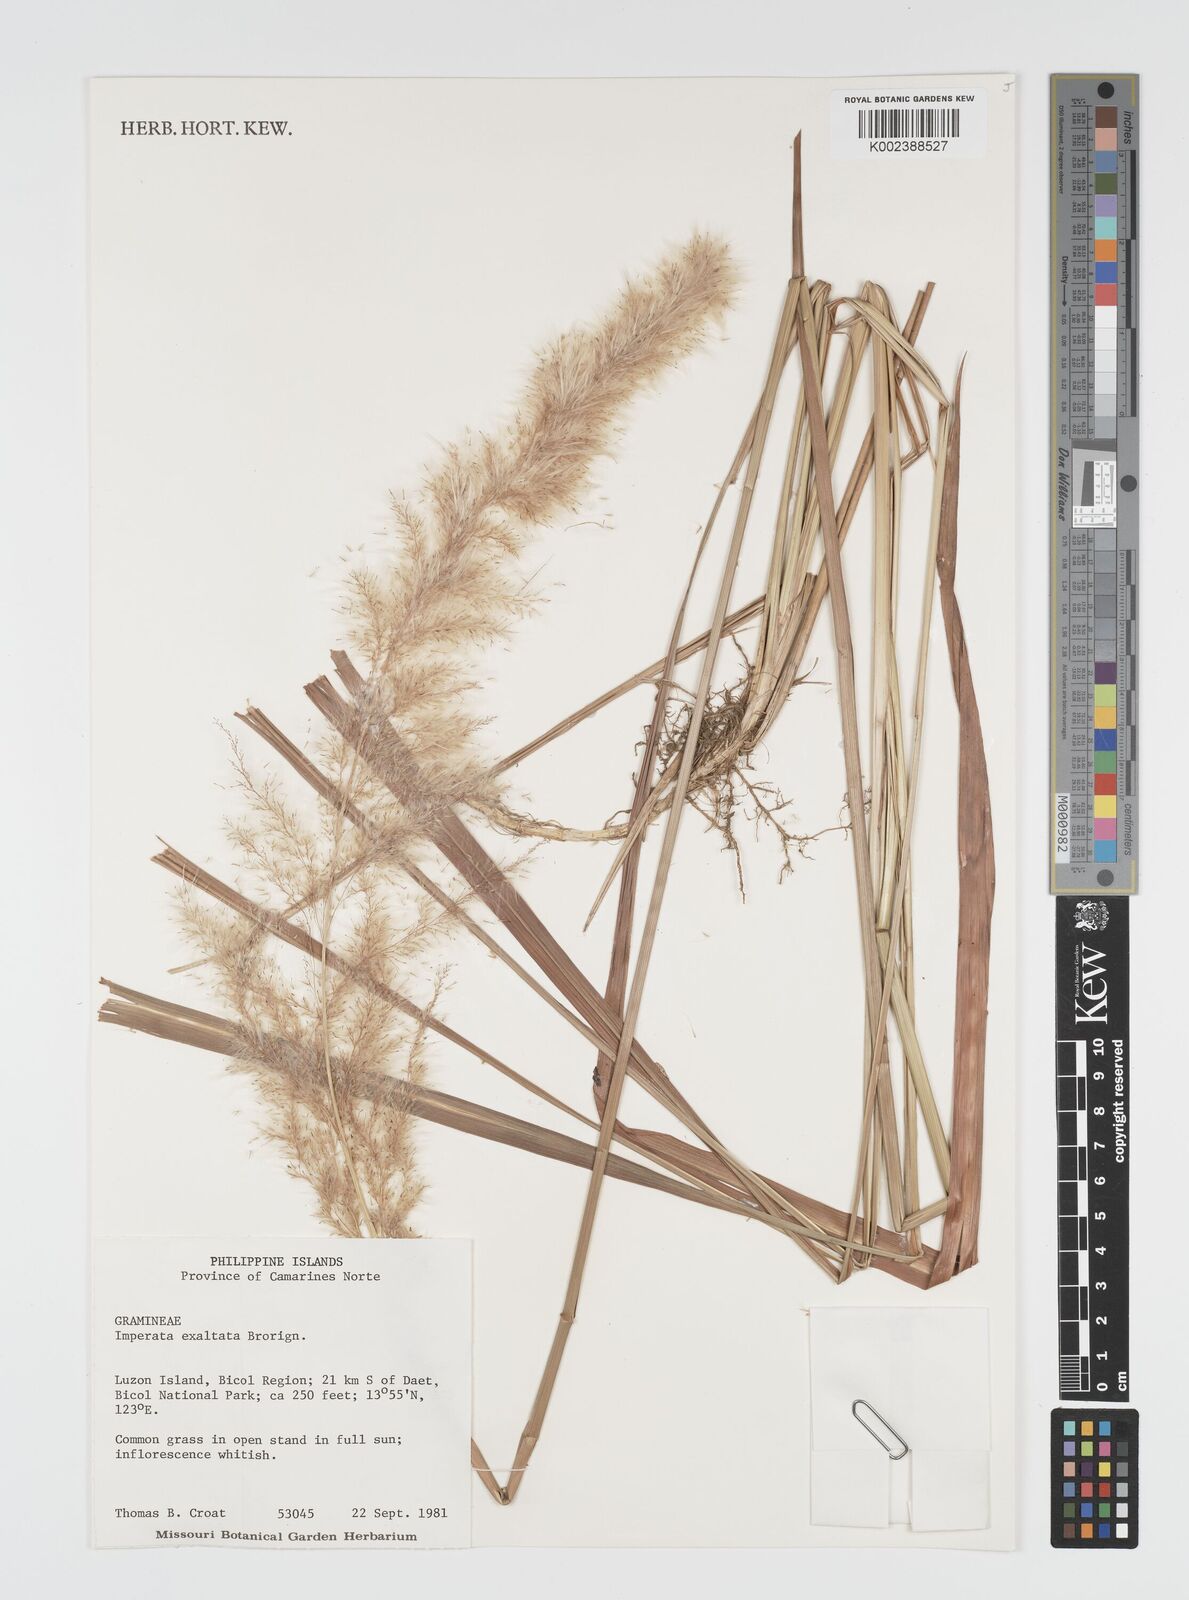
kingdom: Plantae
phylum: Tracheophyta
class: Liliopsida
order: Poales
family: Poaceae
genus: Imperata
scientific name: Imperata conferta
